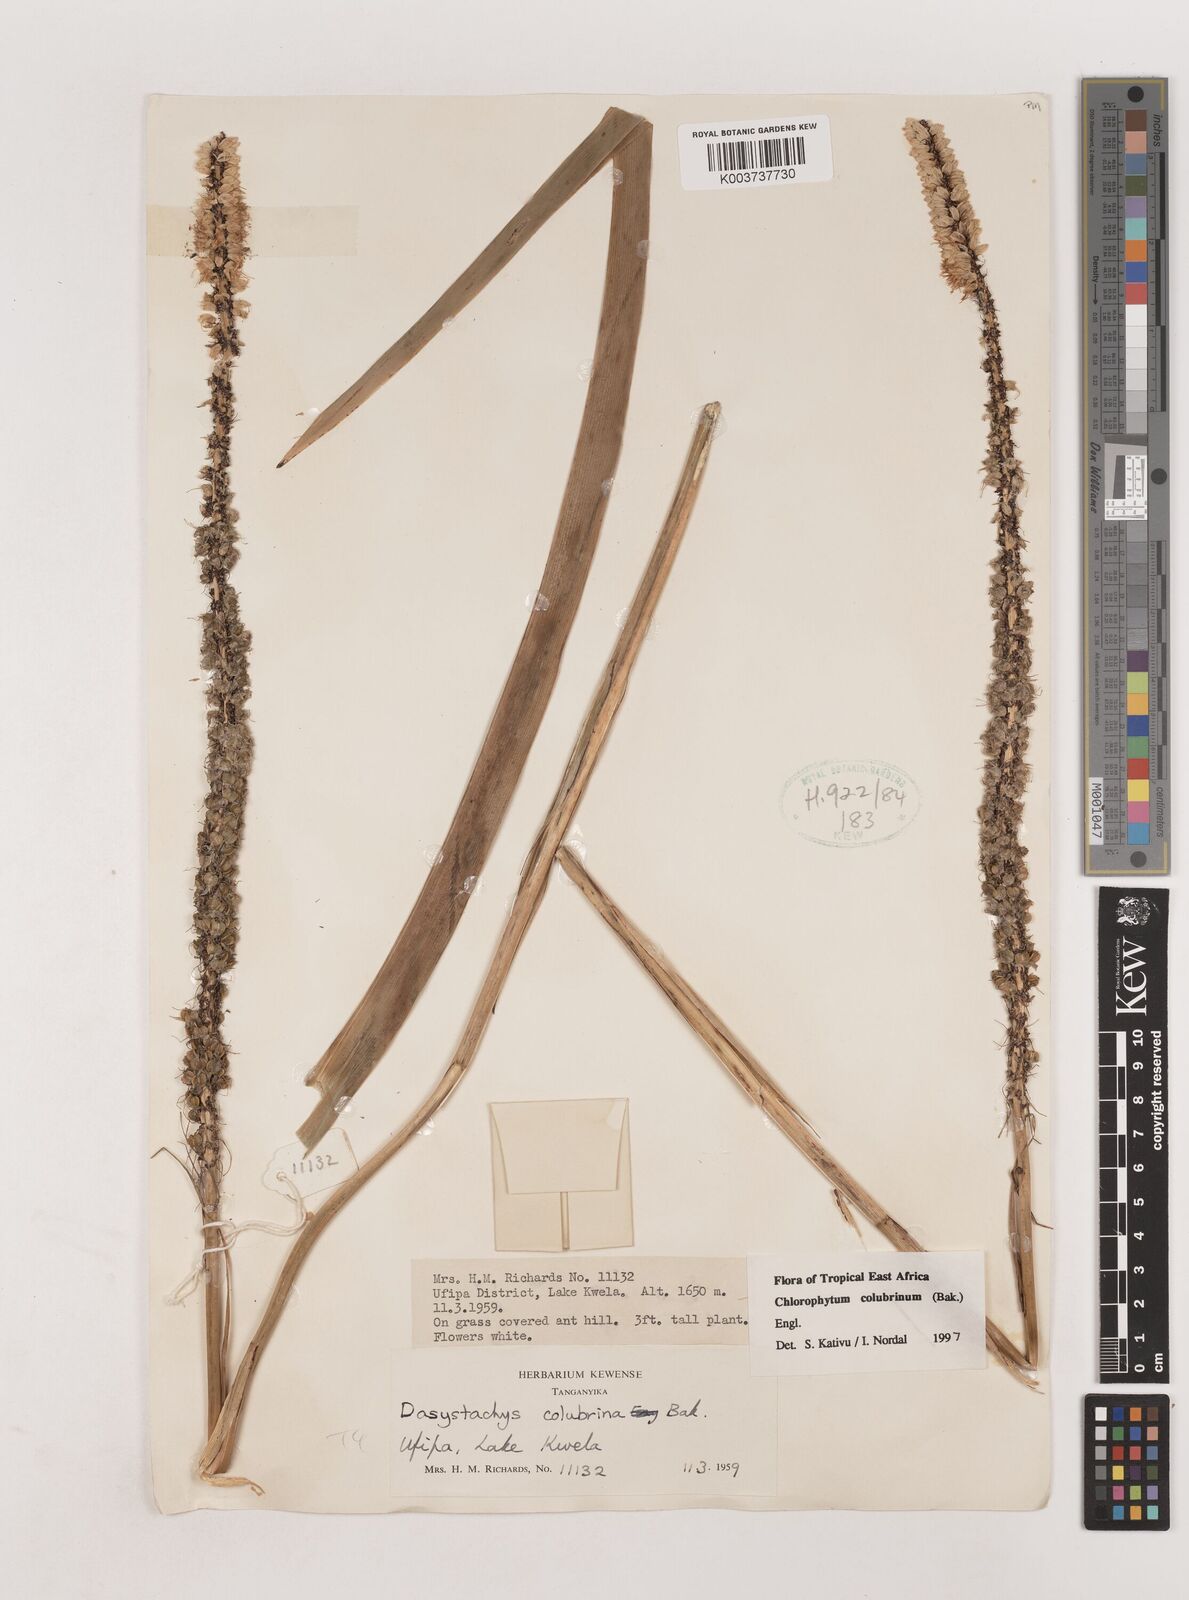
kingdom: Plantae
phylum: Tracheophyta
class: Liliopsida
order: Asparagales
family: Asparagaceae
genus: Chlorophytum
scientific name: Chlorophytum colubrinum
